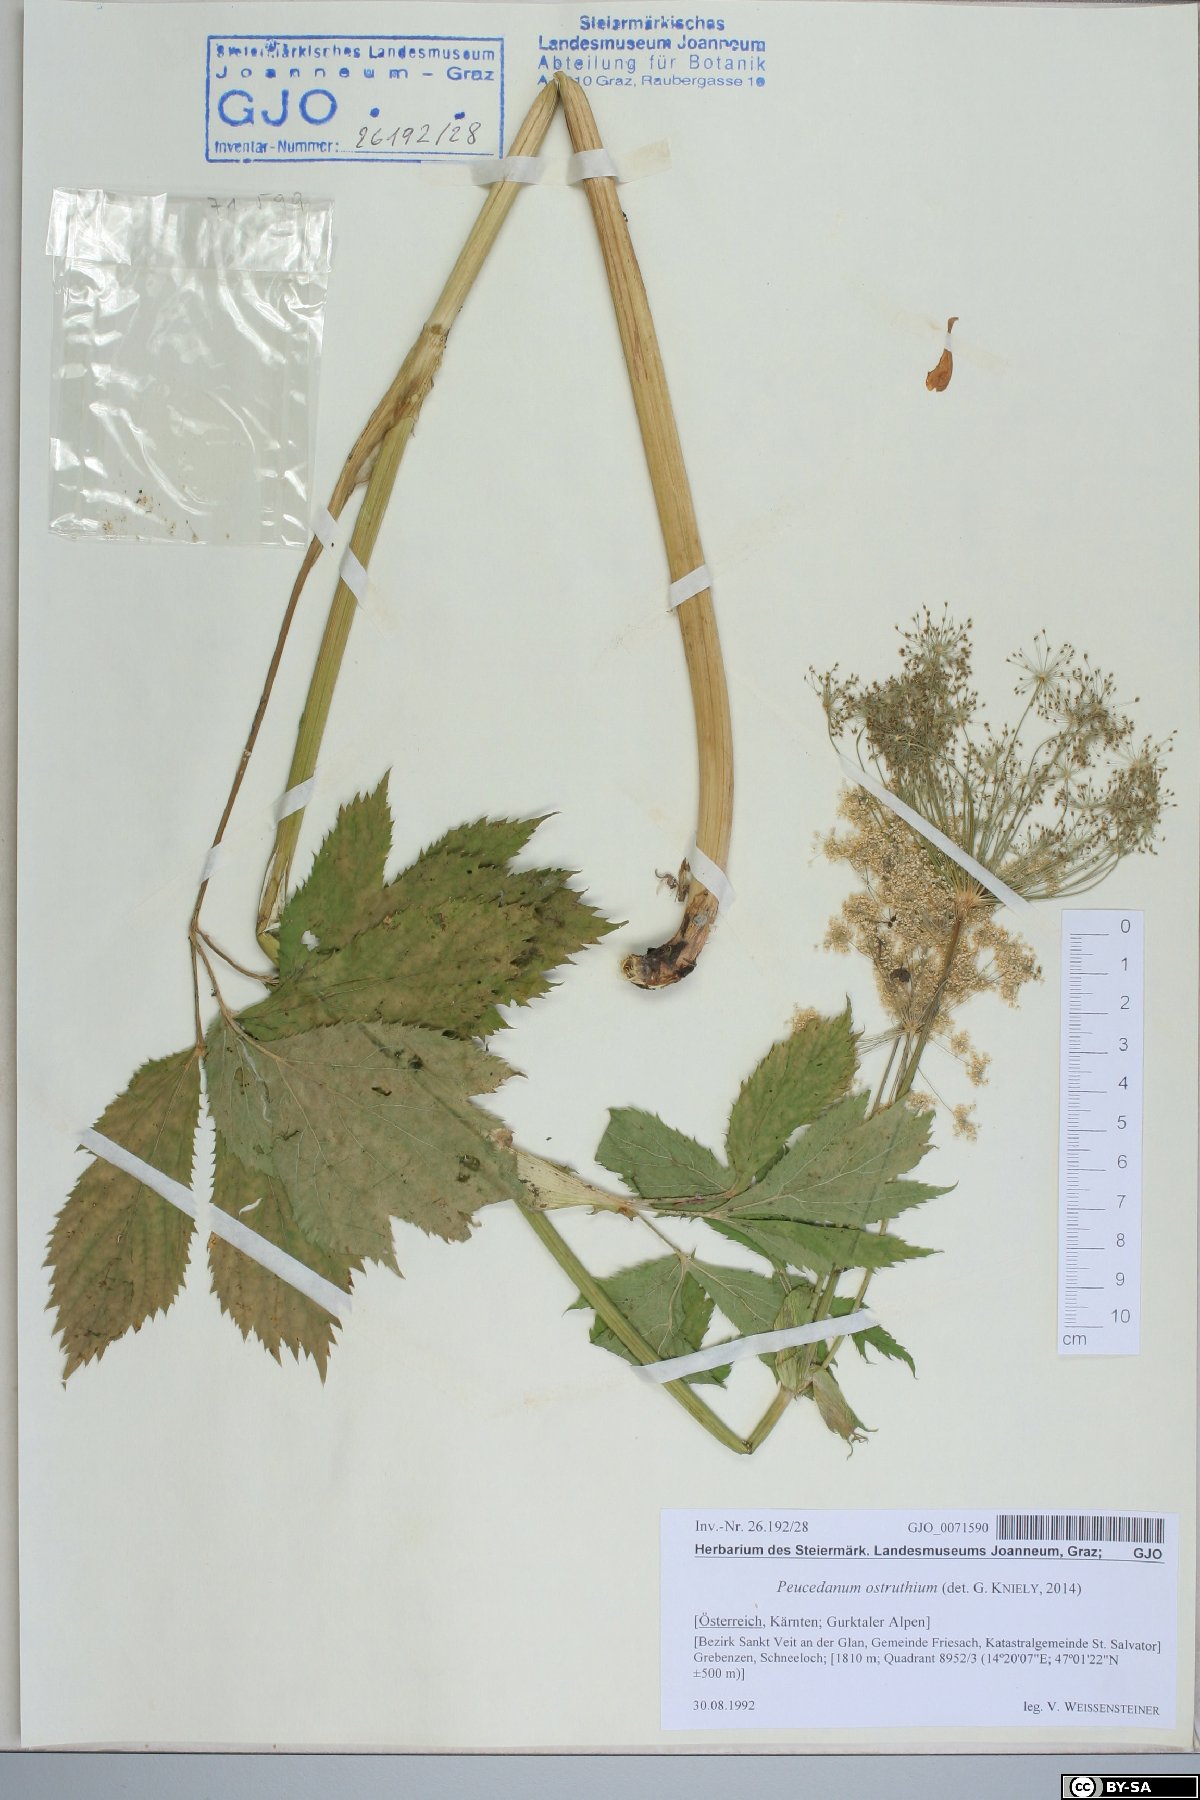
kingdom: Plantae
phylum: Tracheophyta
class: Magnoliopsida
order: Apiales
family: Apiaceae
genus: Imperatoria
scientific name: Imperatoria ostruthium
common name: Masterwort
